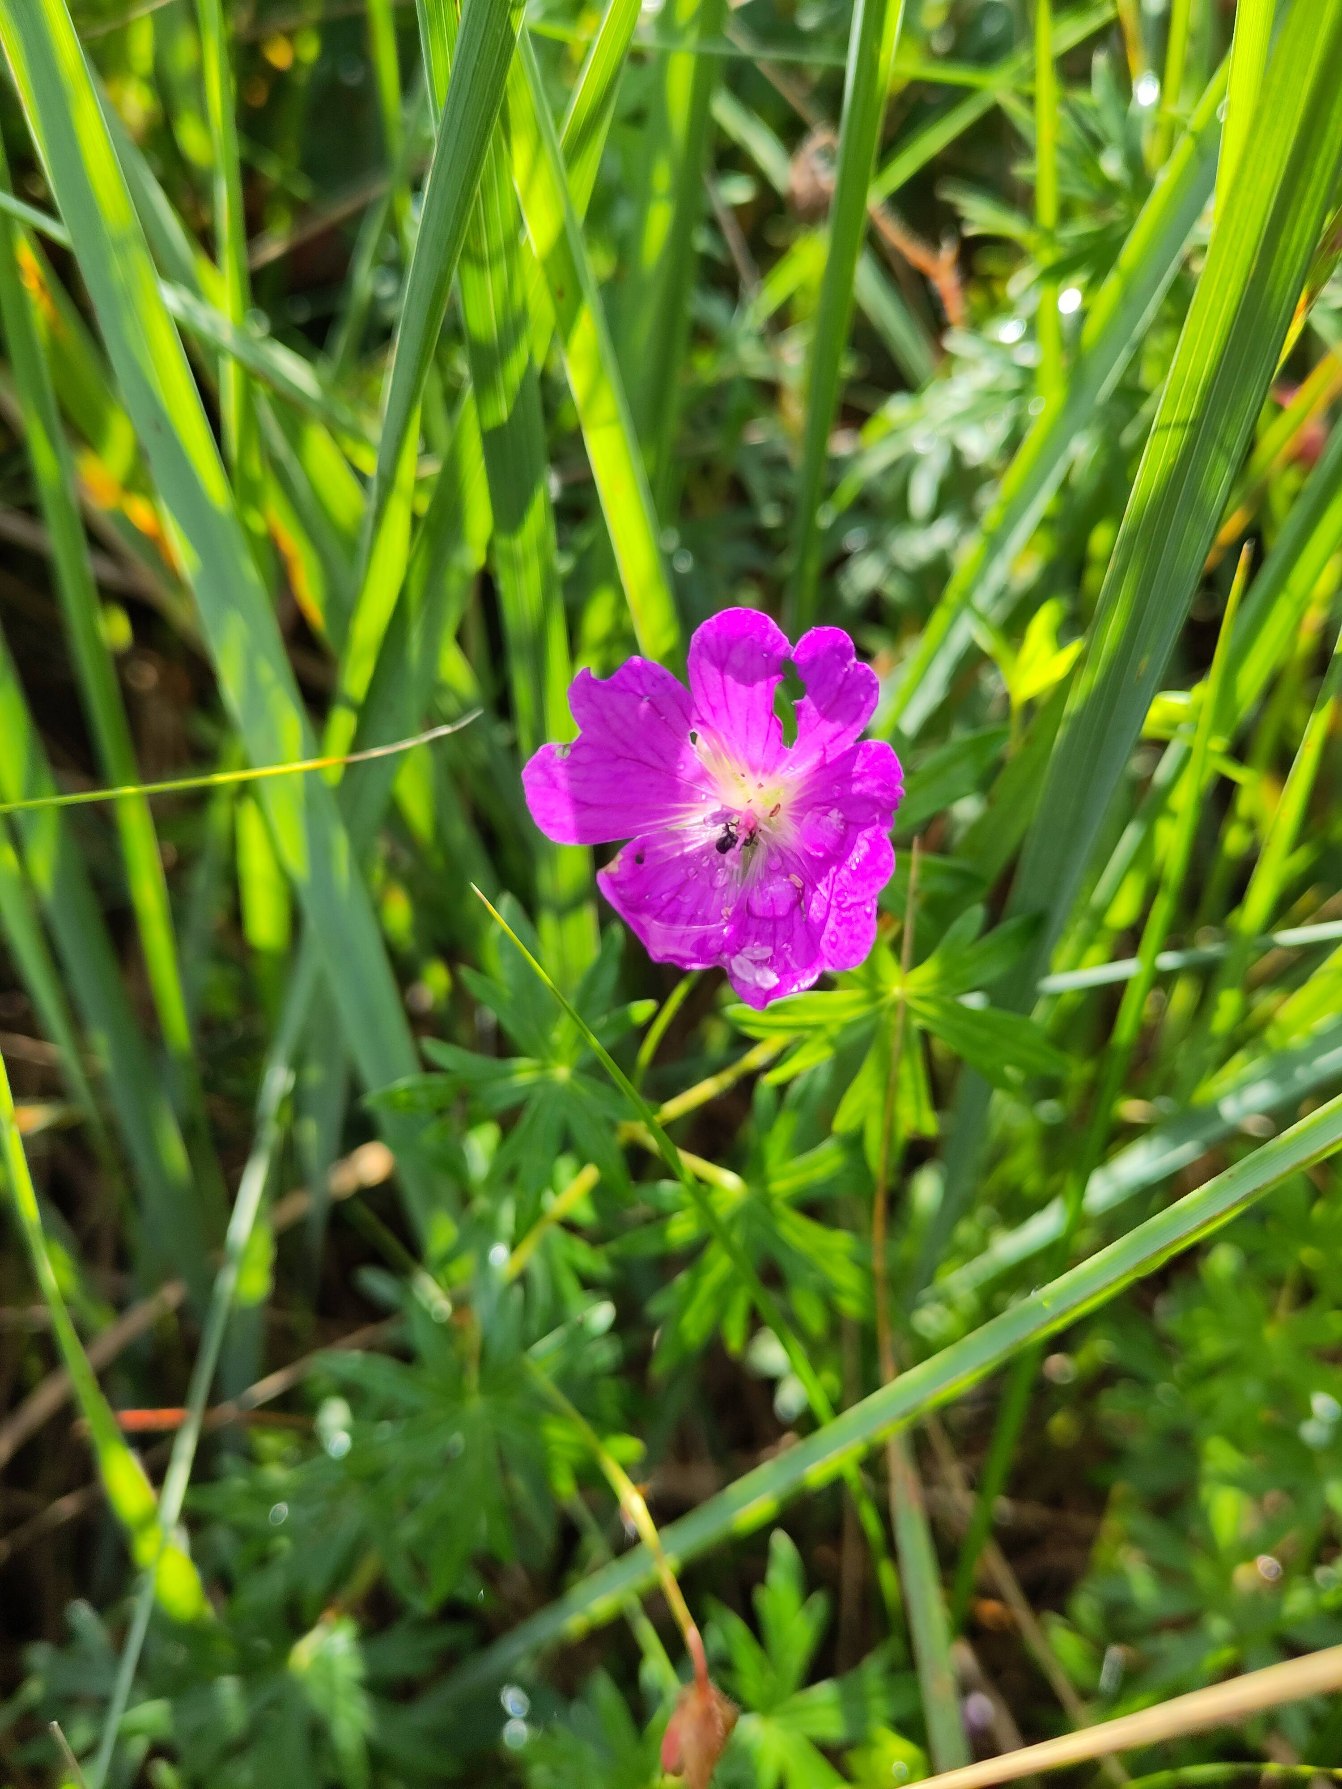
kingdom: Plantae
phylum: Tracheophyta
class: Magnoliopsida
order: Geraniales
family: Geraniaceae
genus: Geranium
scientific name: Geranium sanguineum
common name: Blodrød storkenæb
